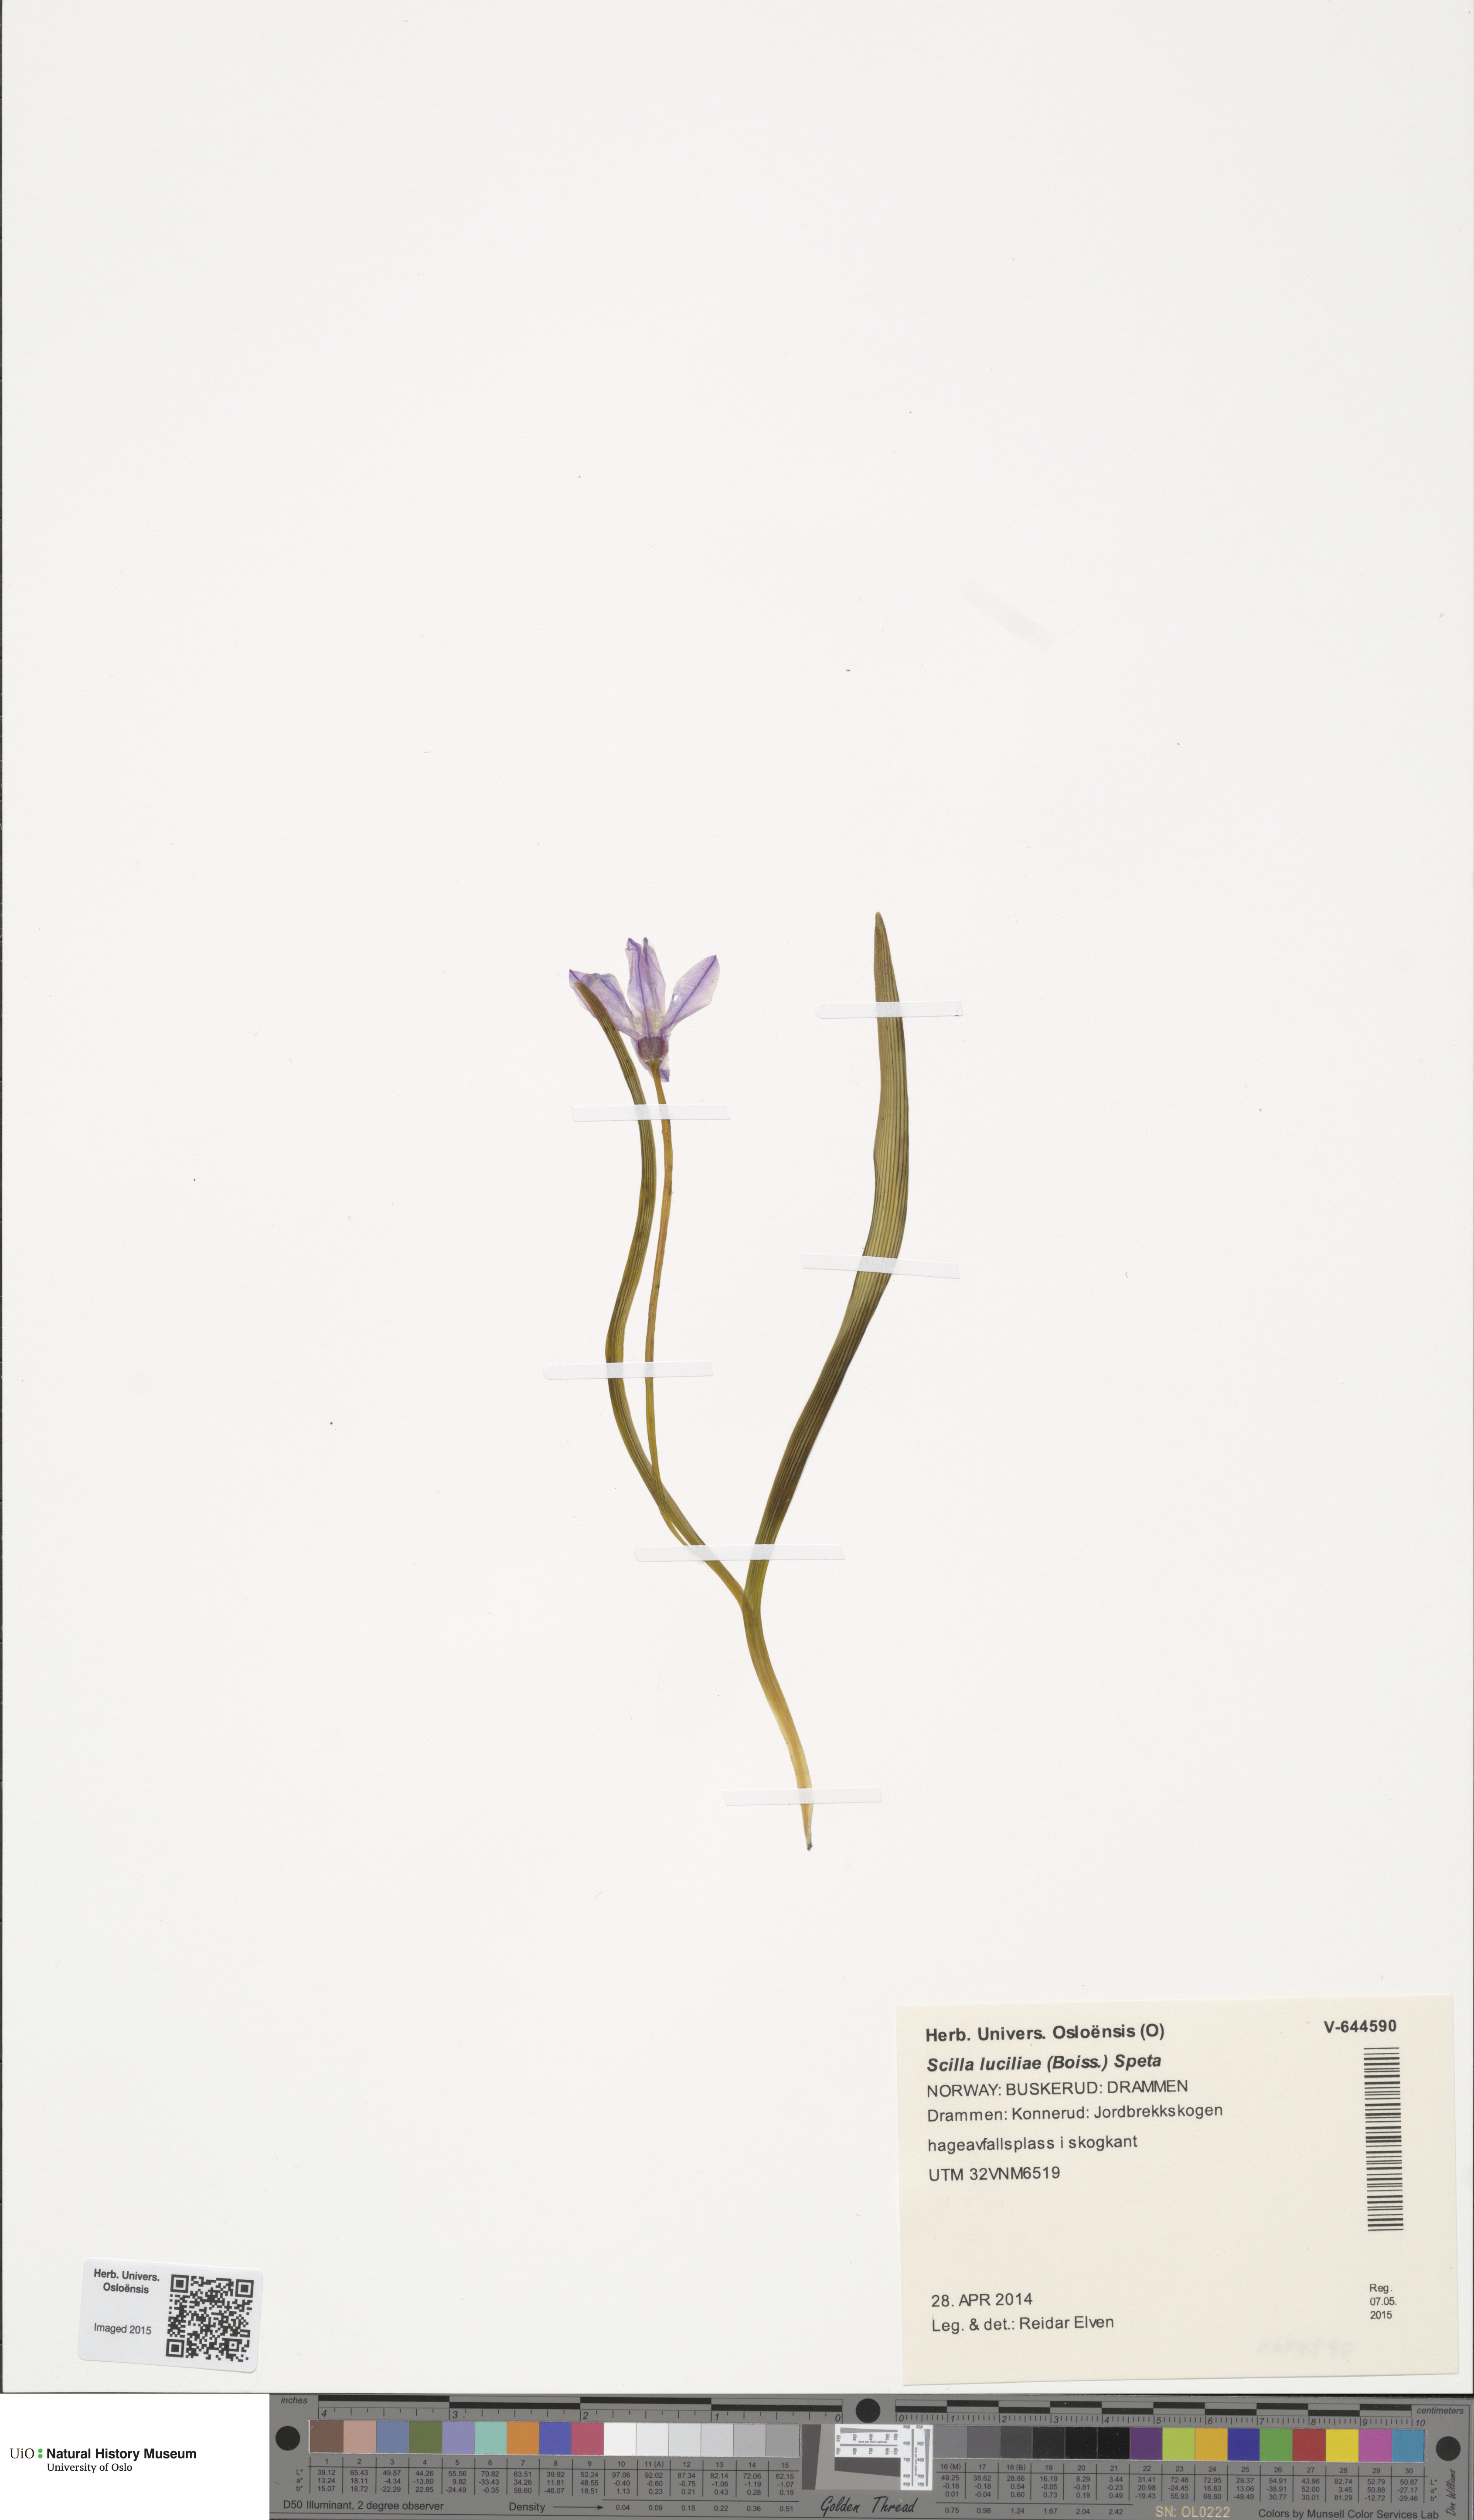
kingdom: Plantae
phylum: Tracheophyta
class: Liliopsida
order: Asparagales
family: Asparagaceae
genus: Scilla
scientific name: Scilla luciliae
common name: Boissier's glory-of-the-snow
